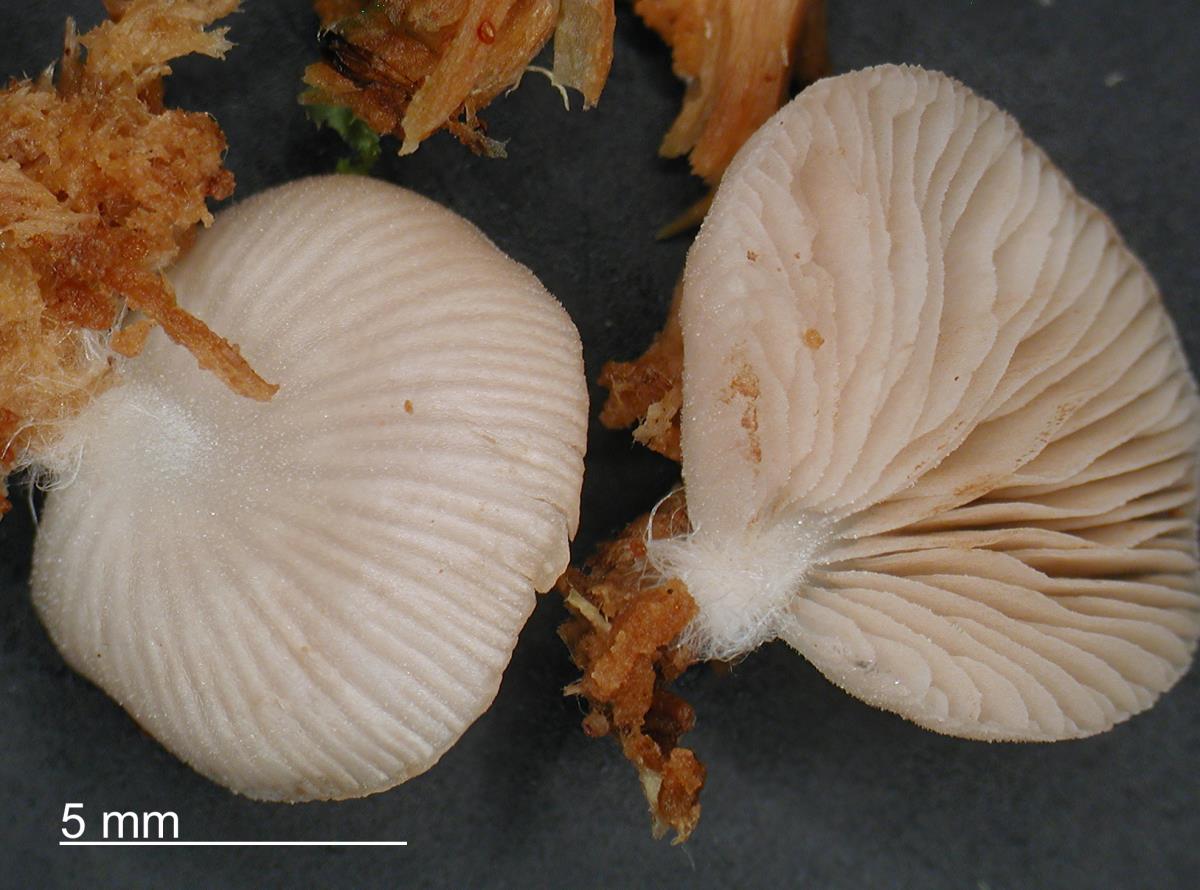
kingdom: Fungi
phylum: Basidiomycota
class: Agaricomycetes
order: Agaricales
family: Crepidotaceae
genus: Crepidotus
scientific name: Crepidotus lateralipes
